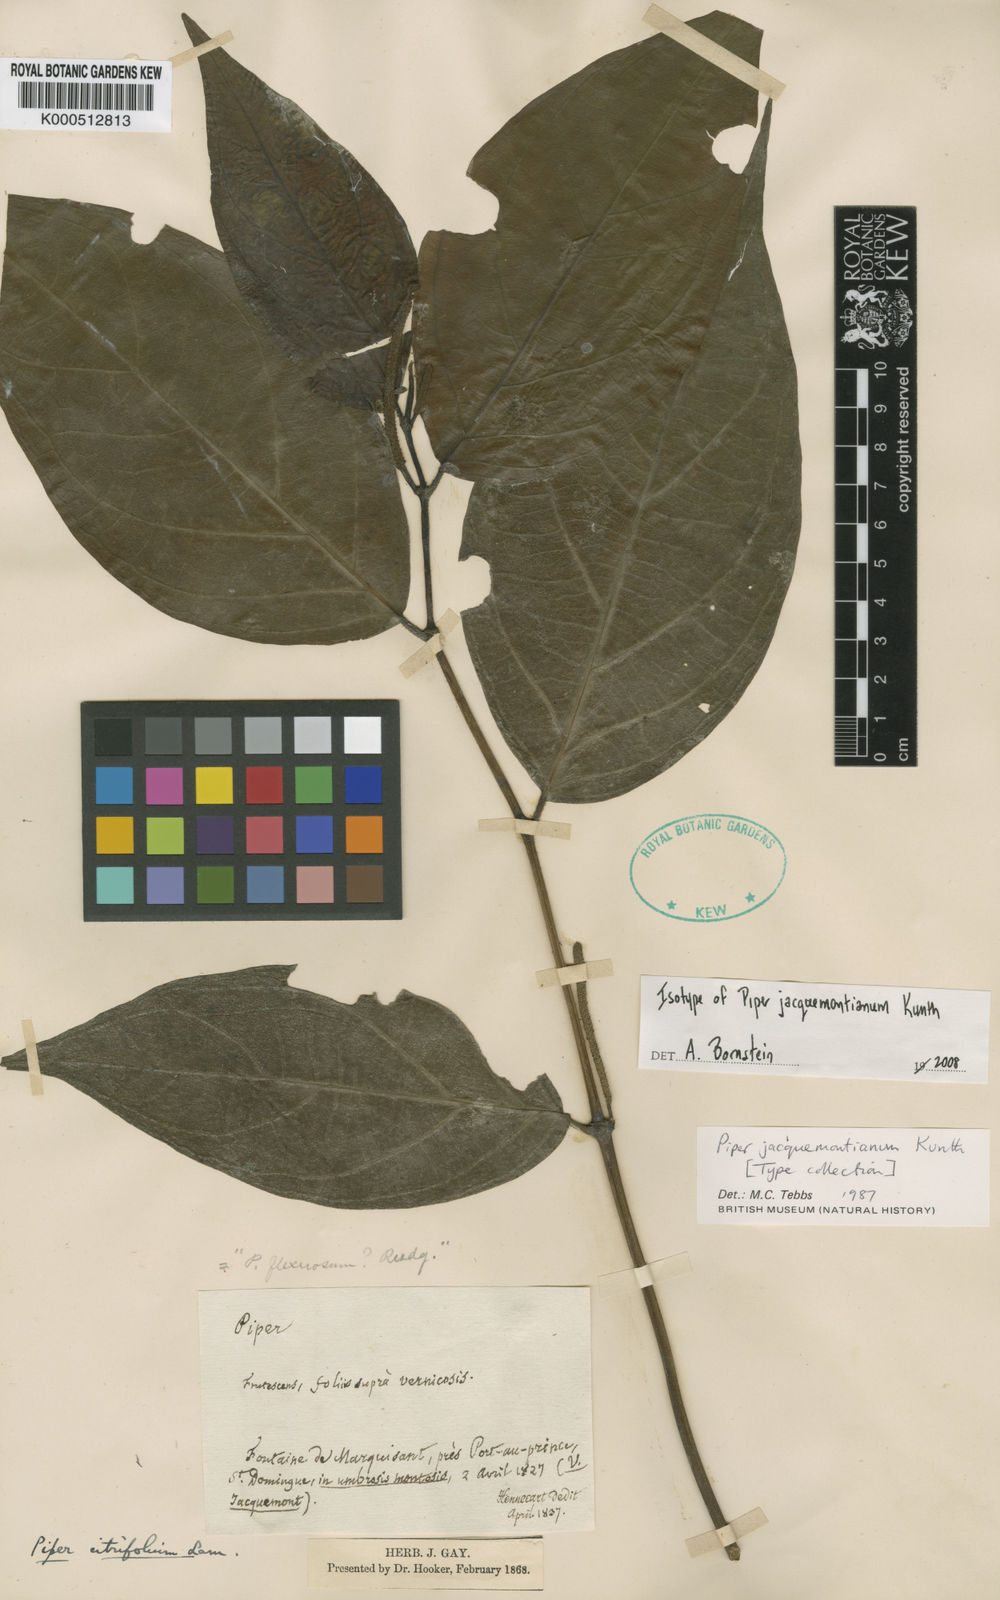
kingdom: Plantae
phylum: Tracheophyta
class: Magnoliopsida
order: Piperales
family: Piperaceae
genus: Piper
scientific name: Piper
